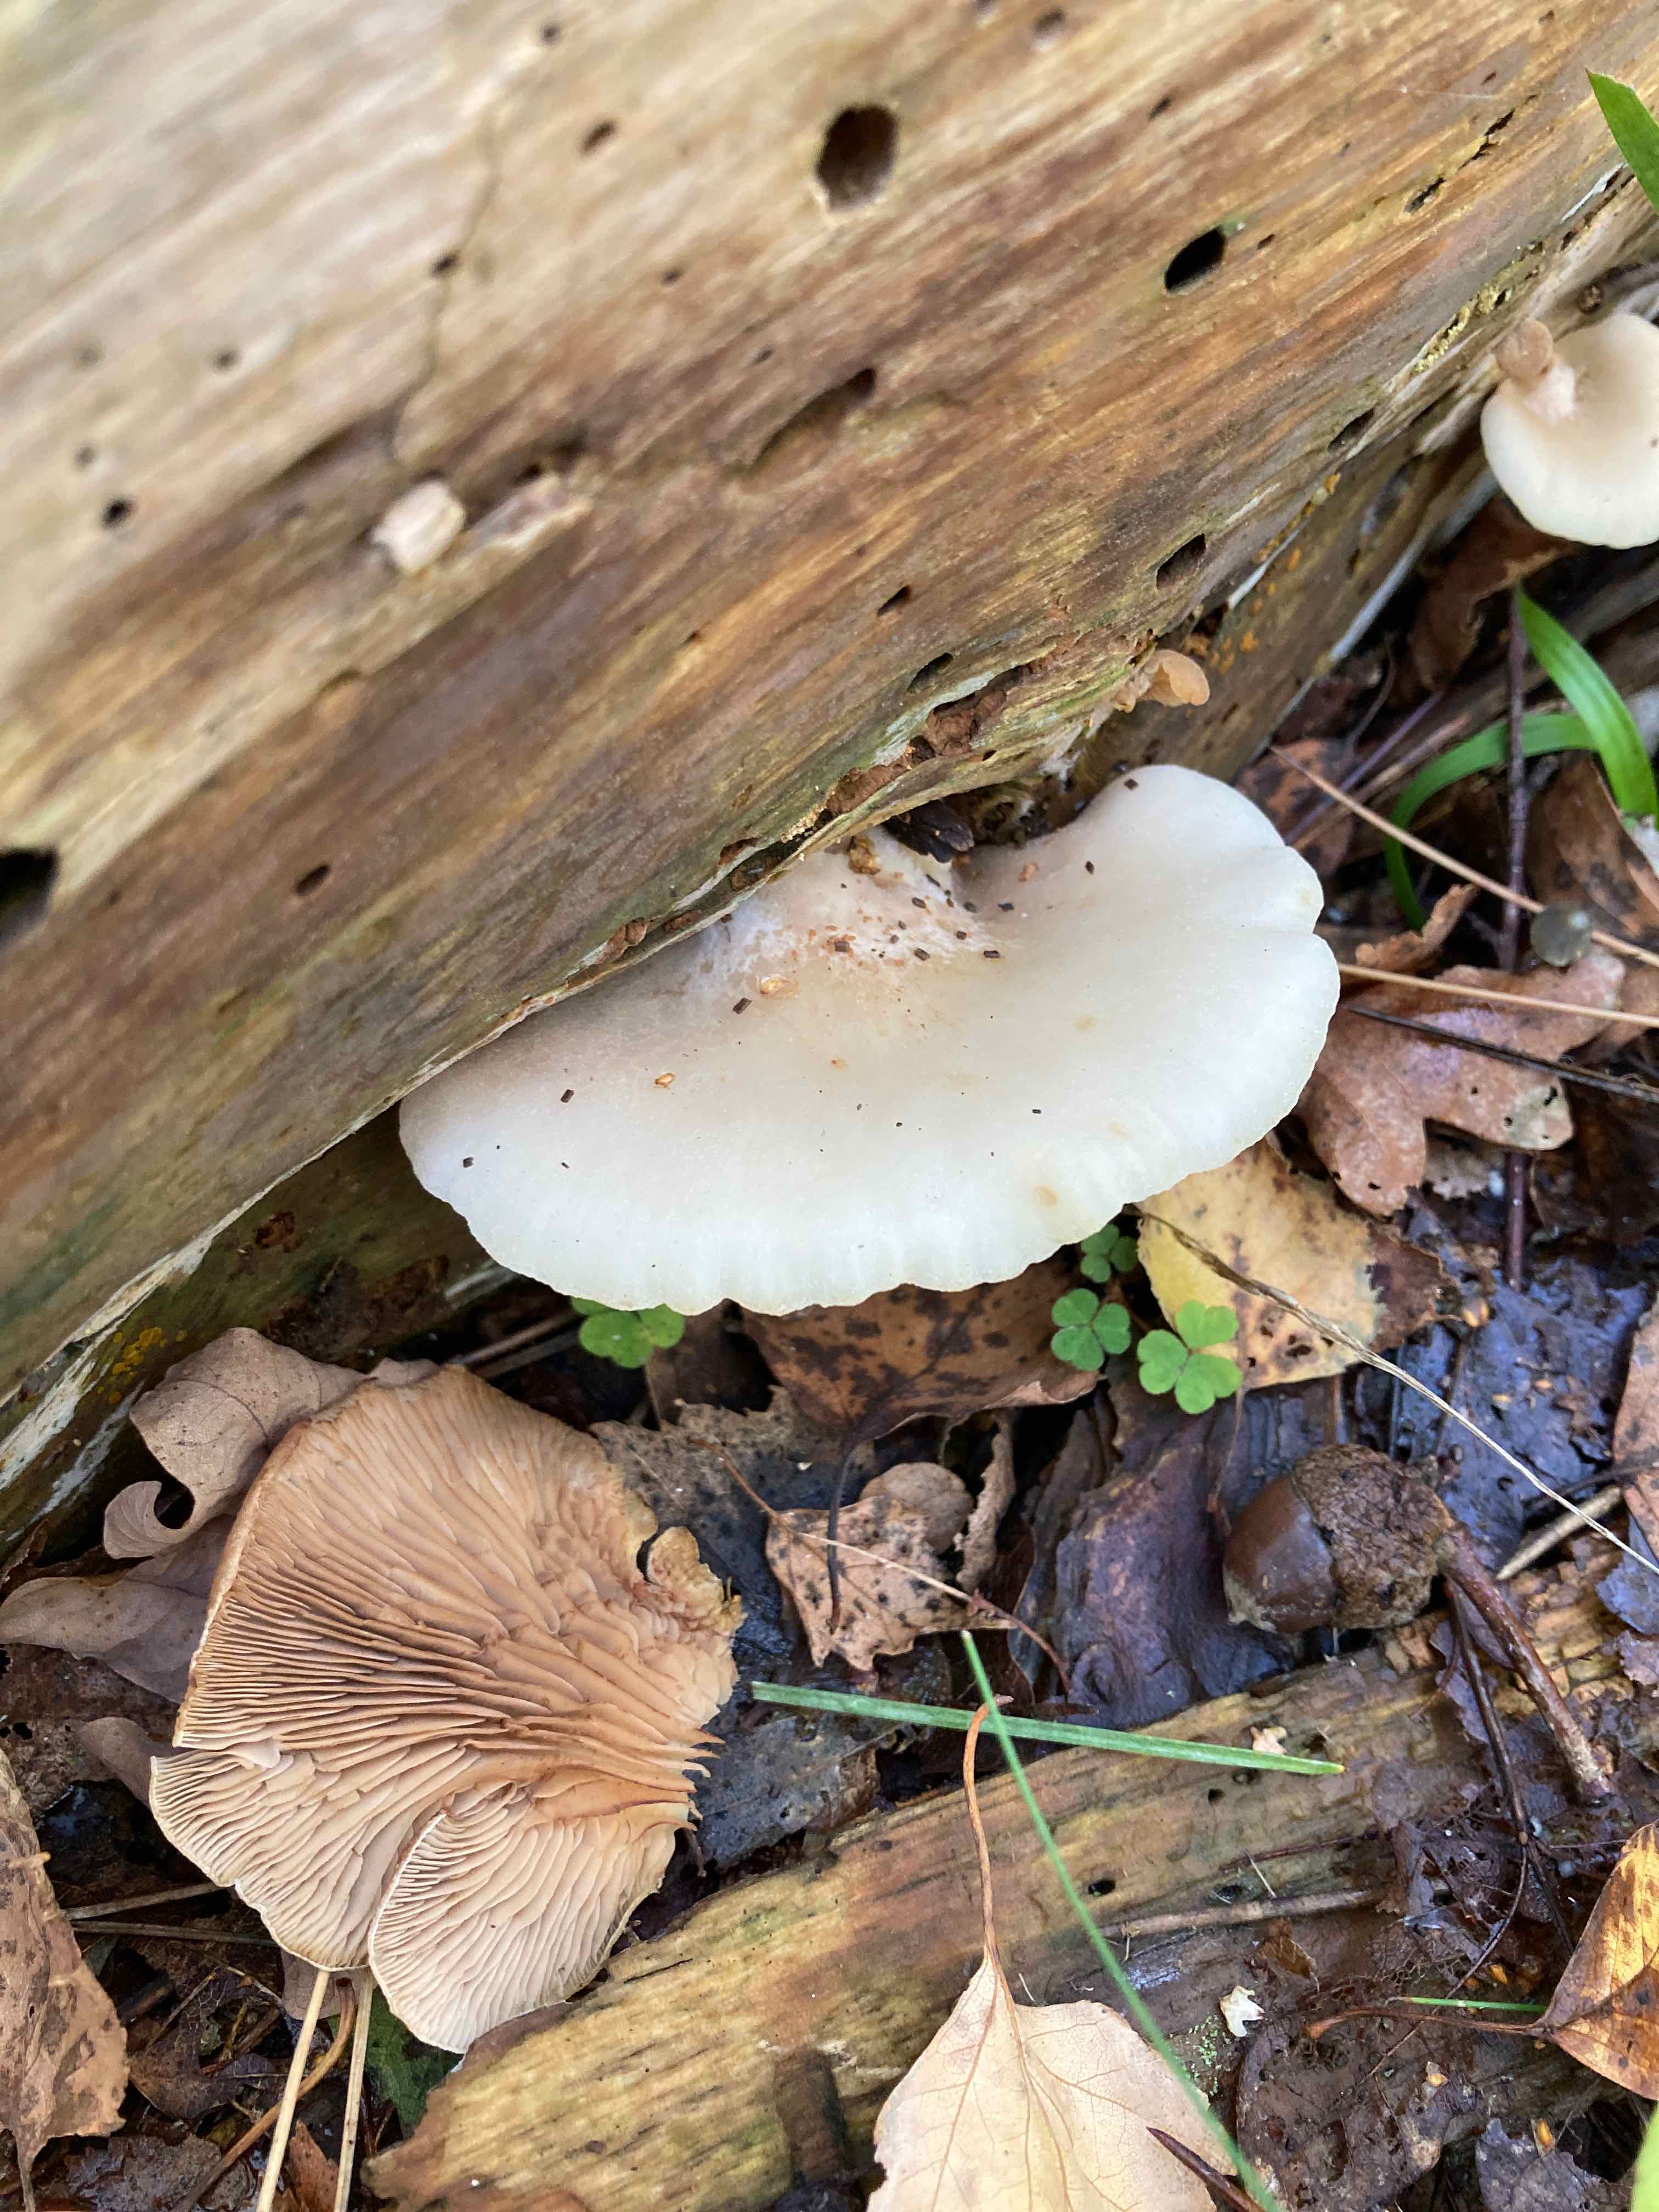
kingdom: Fungi
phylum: Basidiomycota
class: Agaricomycetes
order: Agaricales
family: Crepidotaceae
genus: Crepidotus
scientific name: Crepidotus applanatus
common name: tvefarvet muslingesvamp
